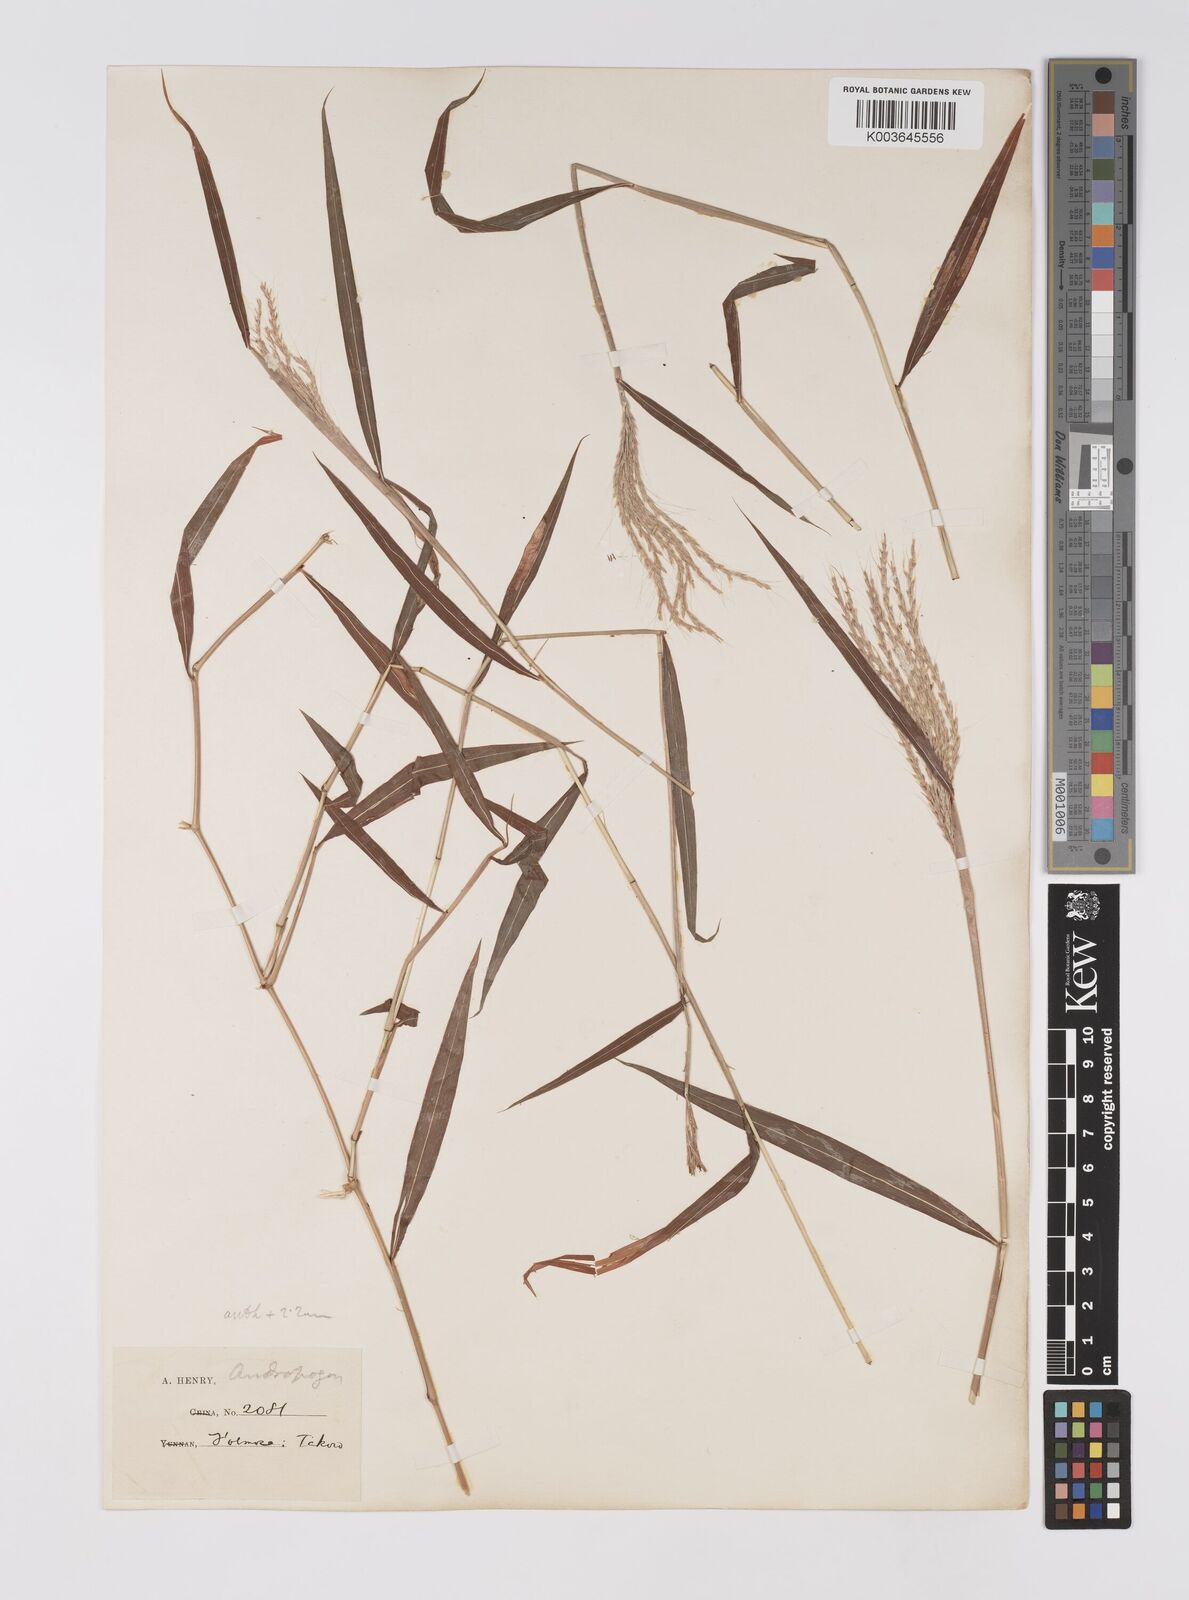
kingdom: Plantae
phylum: Tracheophyta
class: Liliopsida
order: Poales
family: Poaceae
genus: Microstegium
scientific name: Microstegium fasciculatum
